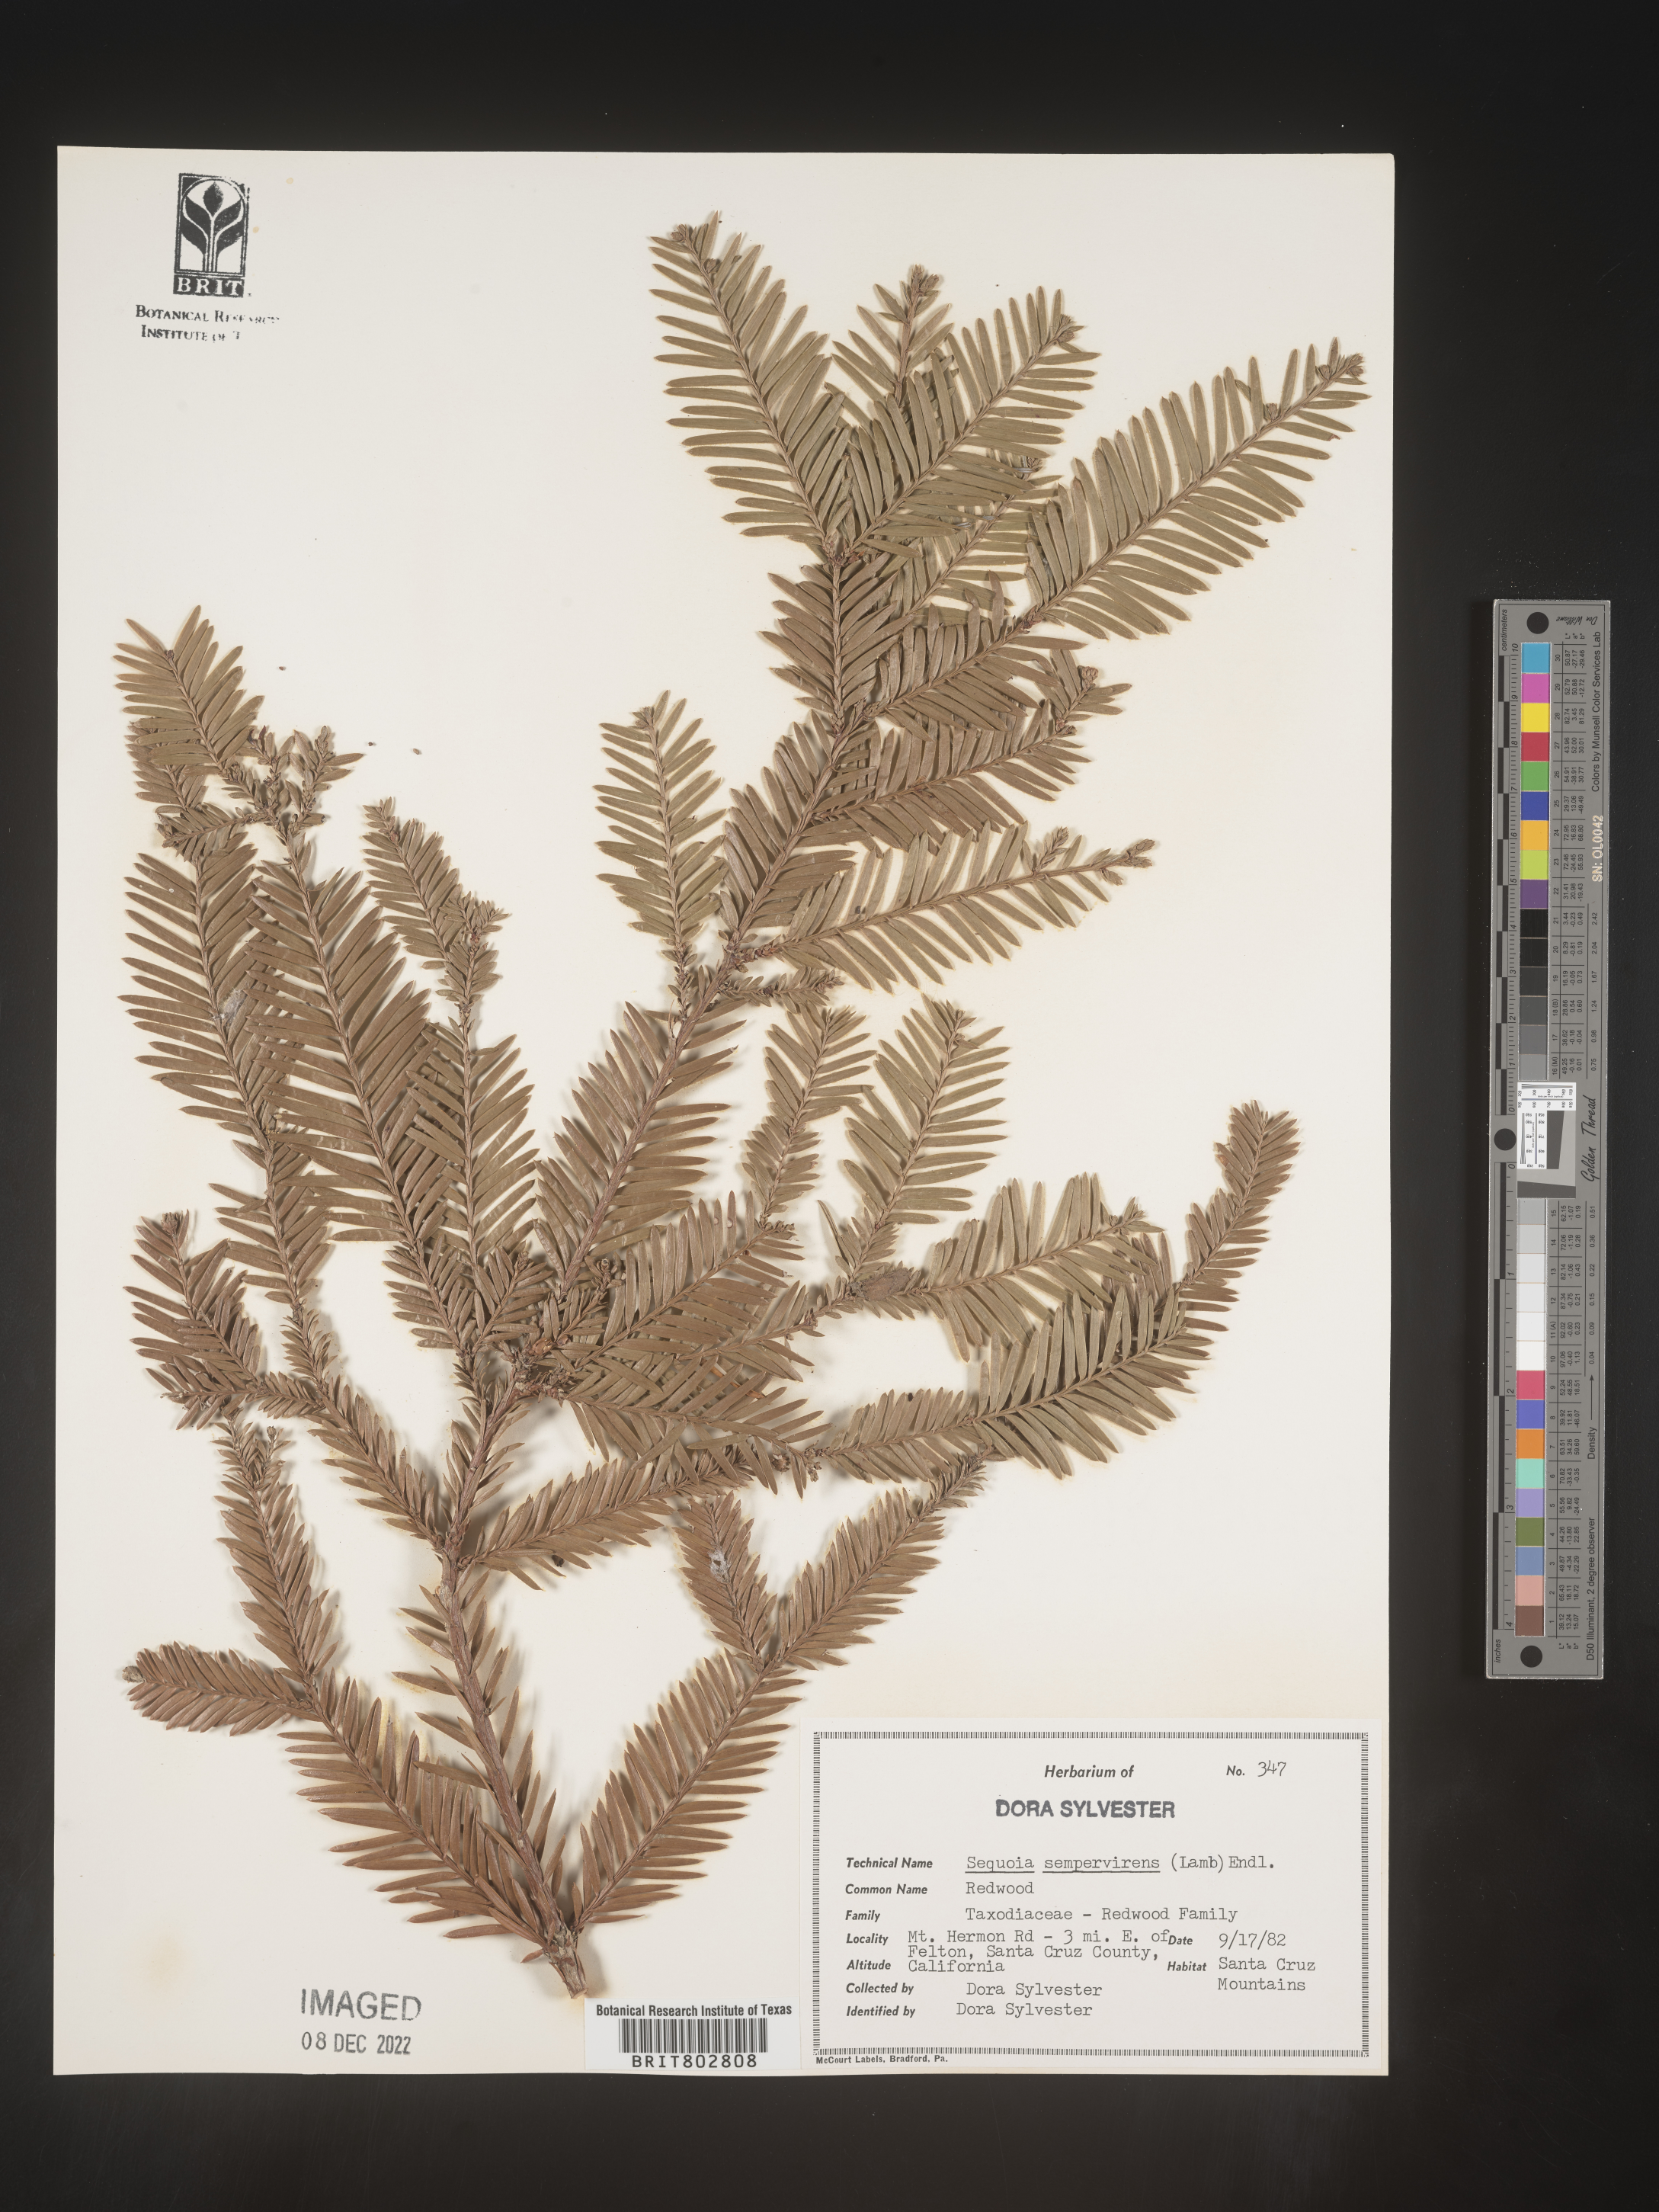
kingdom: Plantae
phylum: Tracheophyta
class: Pinopsida
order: Pinales
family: Cupressaceae
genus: Sequoia
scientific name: Sequoia sempervirens
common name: Coast redwood
